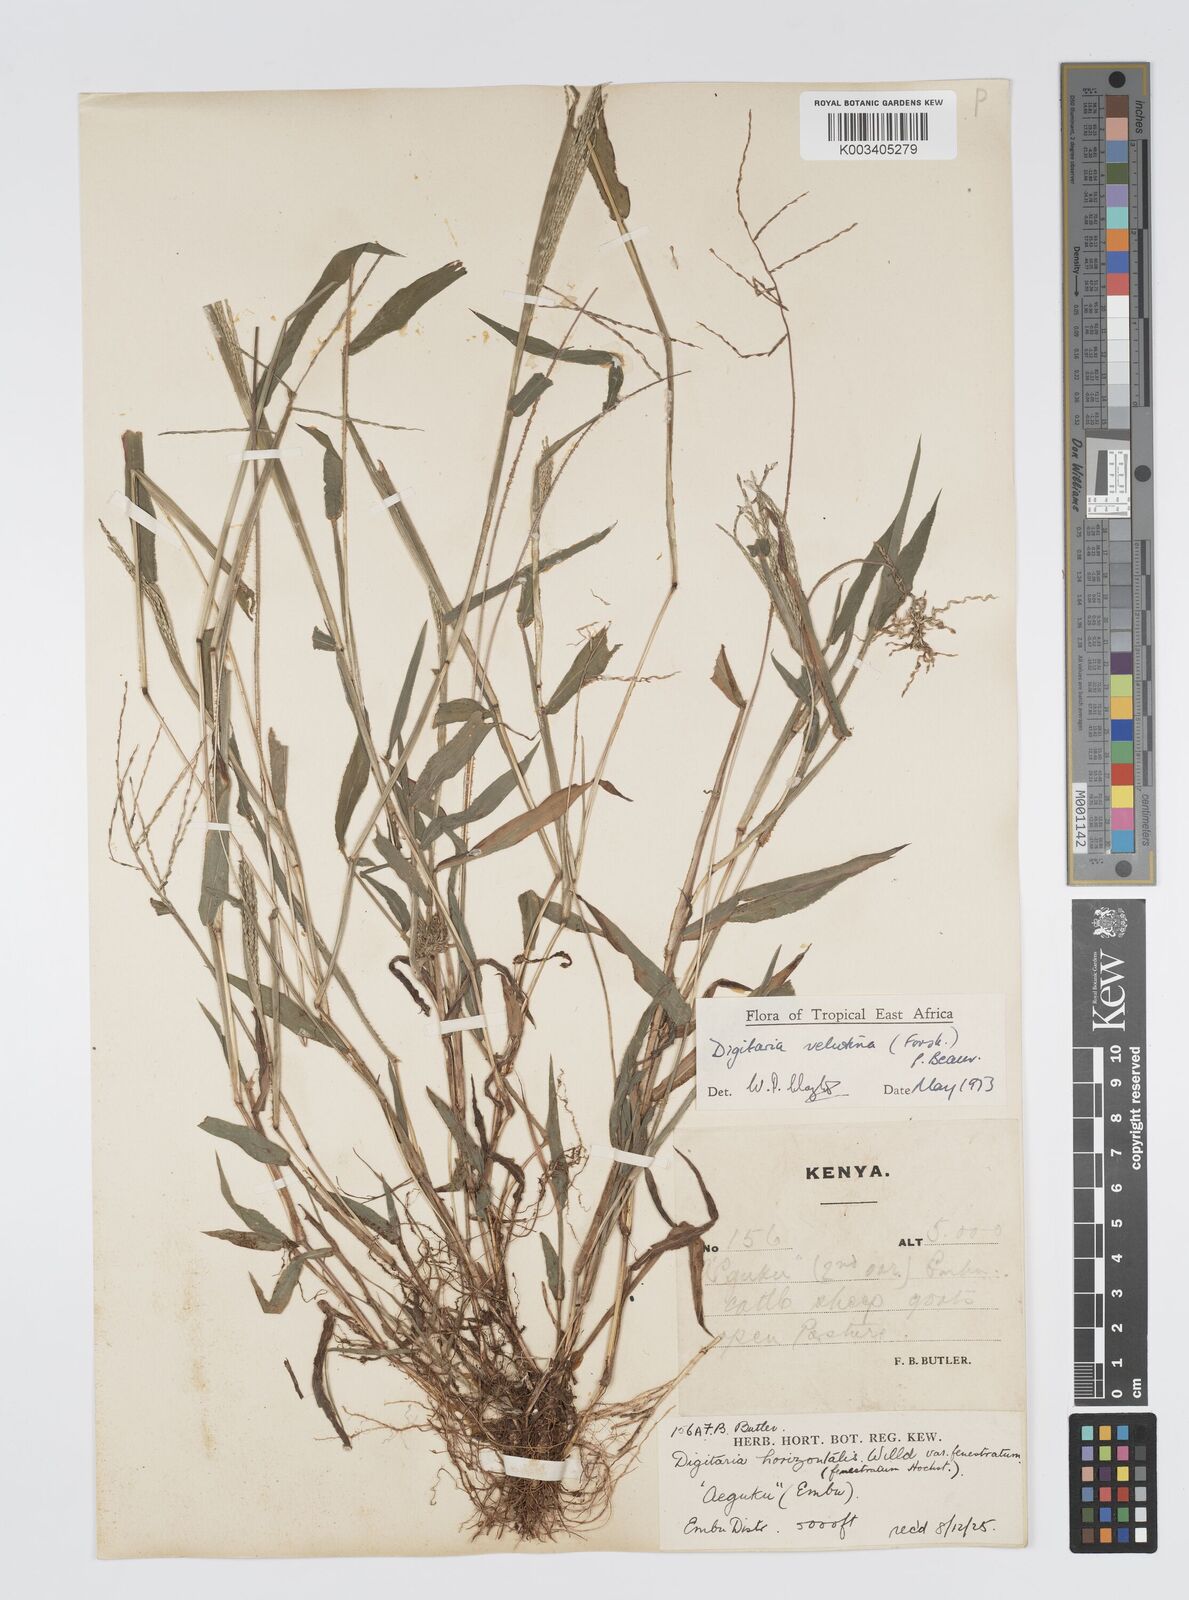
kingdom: Plantae
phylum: Tracheophyta
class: Liliopsida
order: Poales
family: Poaceae
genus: Digitaria
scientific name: Digitaria velutina
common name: Long-plume finger grass
